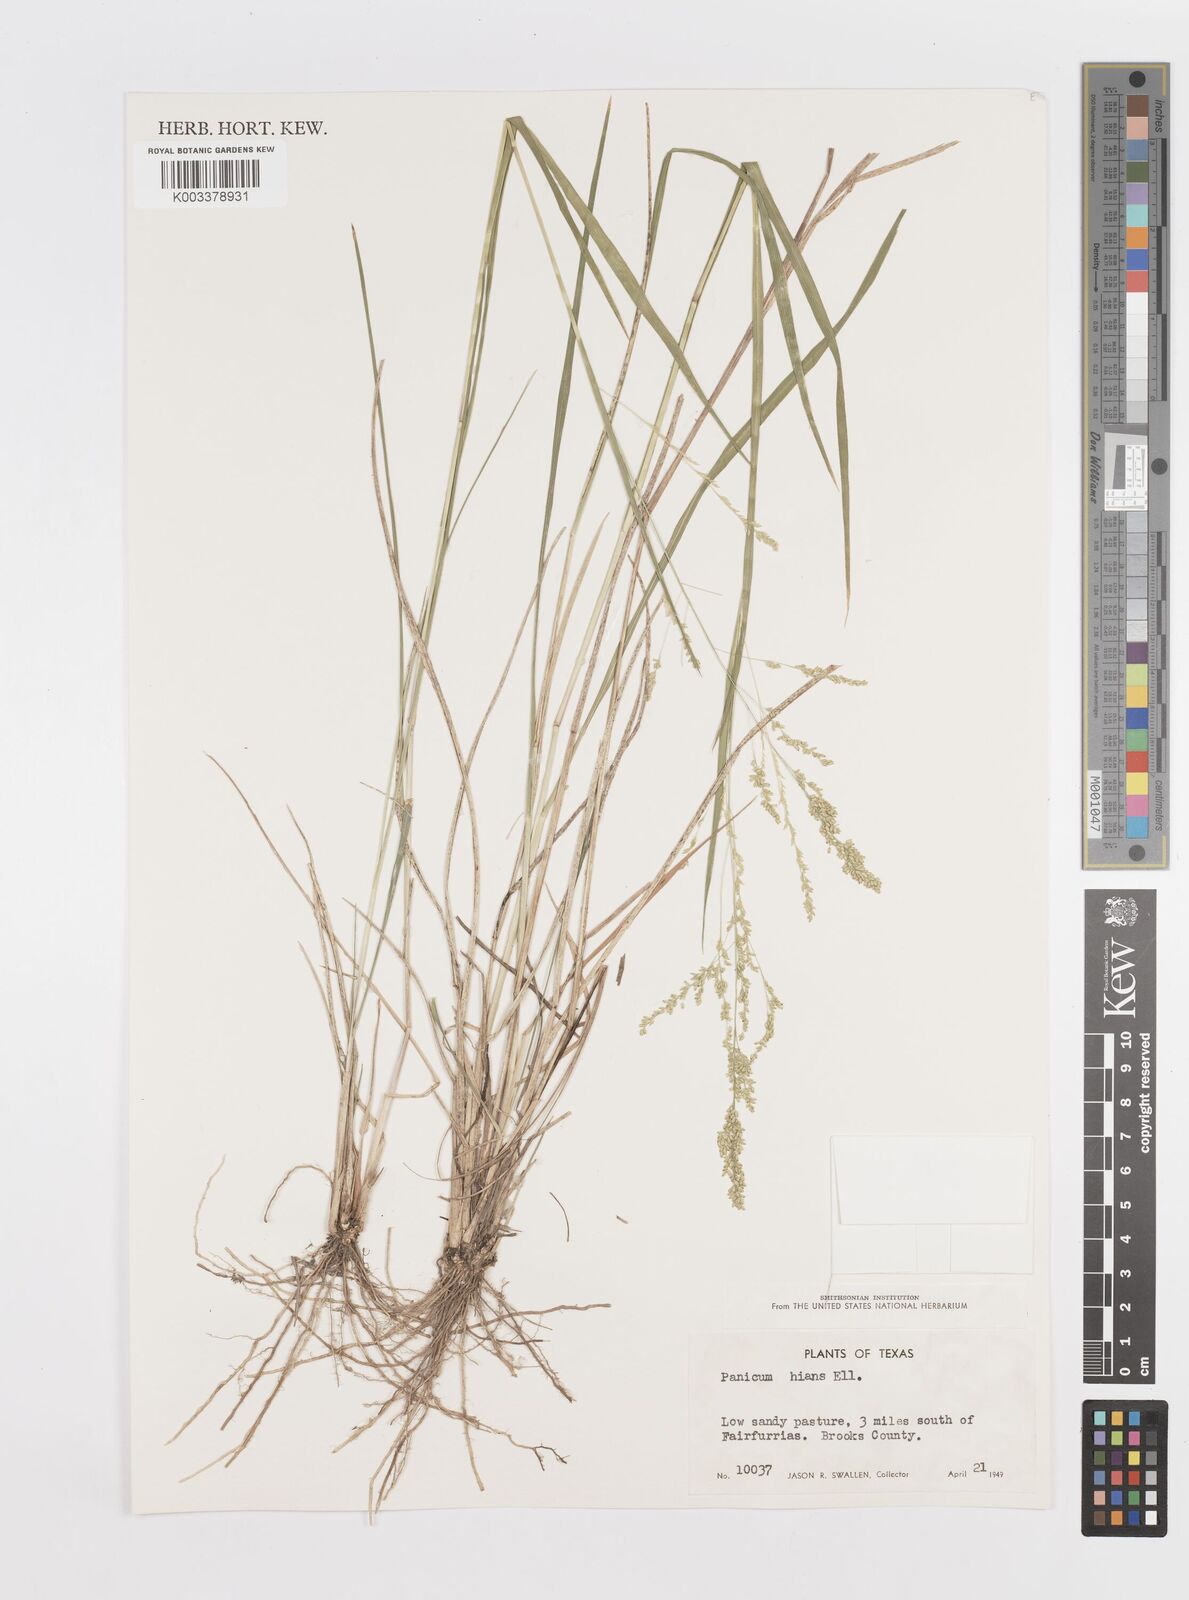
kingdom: Plantae
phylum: Tracheophyta
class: Liliopsida
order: Poales
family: Poaceae
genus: Steinchisma
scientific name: Steinchisma hians
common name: Gaping panic grass
